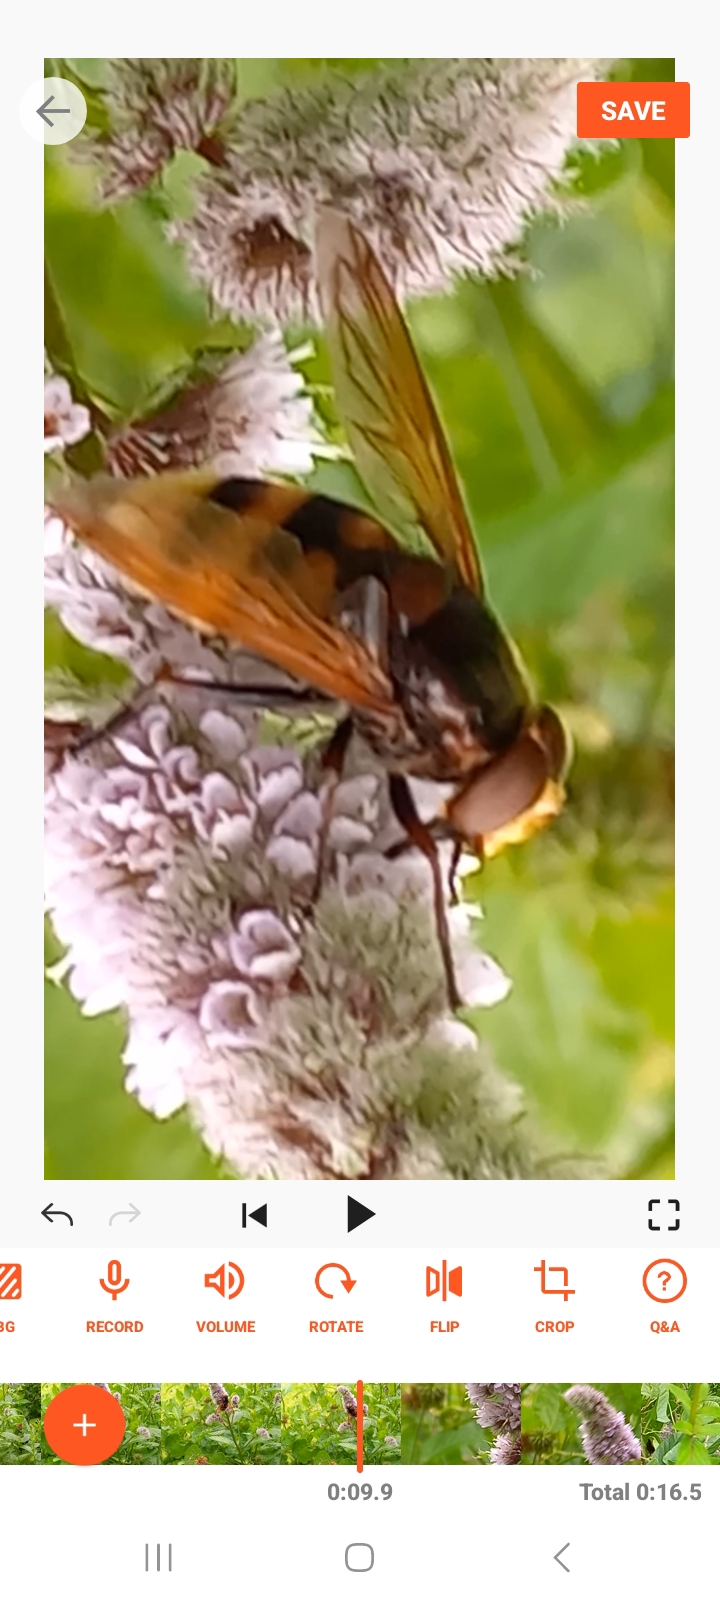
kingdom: Animalia
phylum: Arthropoda
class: Insecta
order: Diptera
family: Syrphidae
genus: Volucella
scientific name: Volucella zonaria
